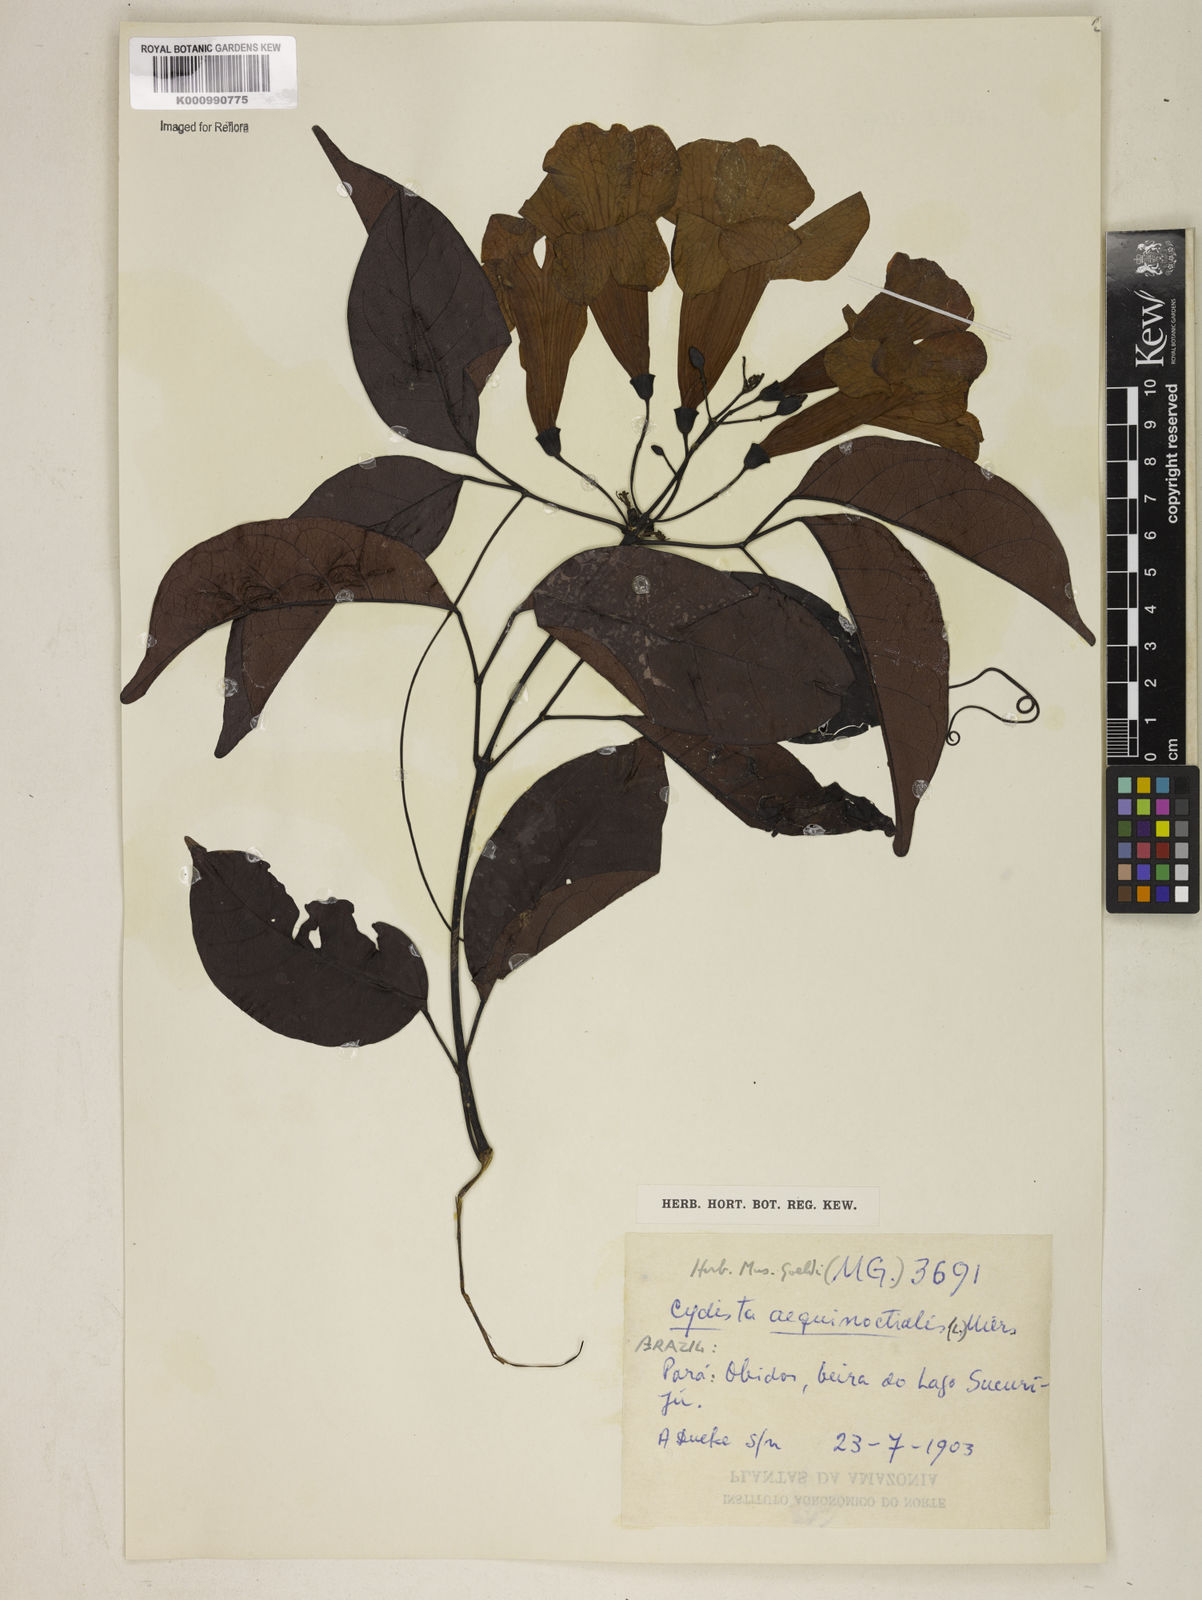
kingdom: Plantae
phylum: Tracheophyta
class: Magnoliopsida
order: Lamiales
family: Bignoniaceae
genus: Bignonia
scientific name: Bignonia aequinoctialis
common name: Garlicvine
